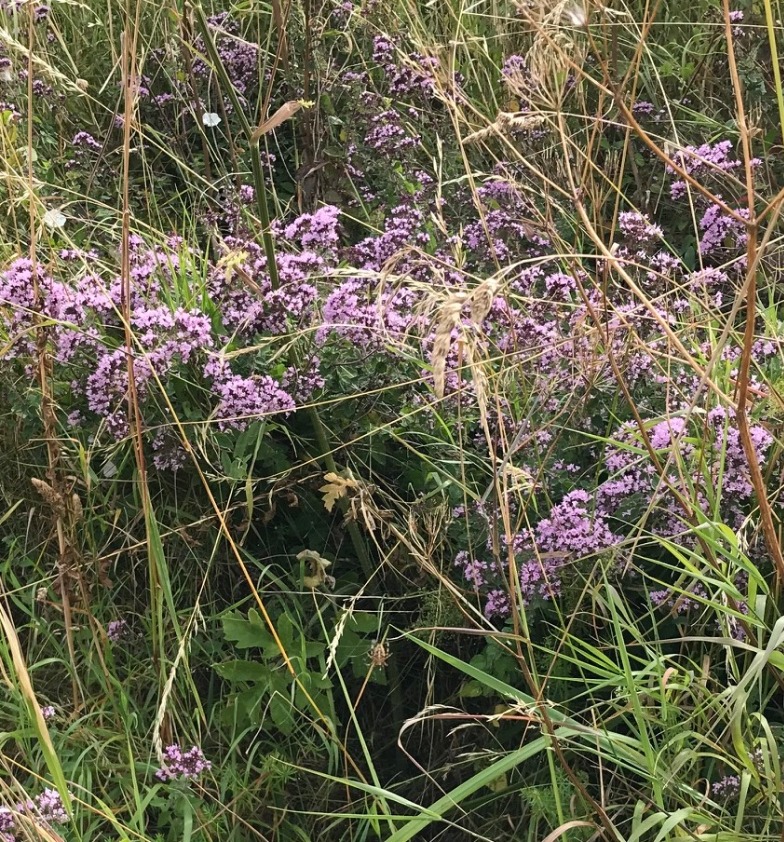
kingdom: Plantae
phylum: Tracheophyta
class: Magnoliopsida
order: Lamiales
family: Lamiaceae
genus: Origanum
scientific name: Origanum vulgare
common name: Merian
